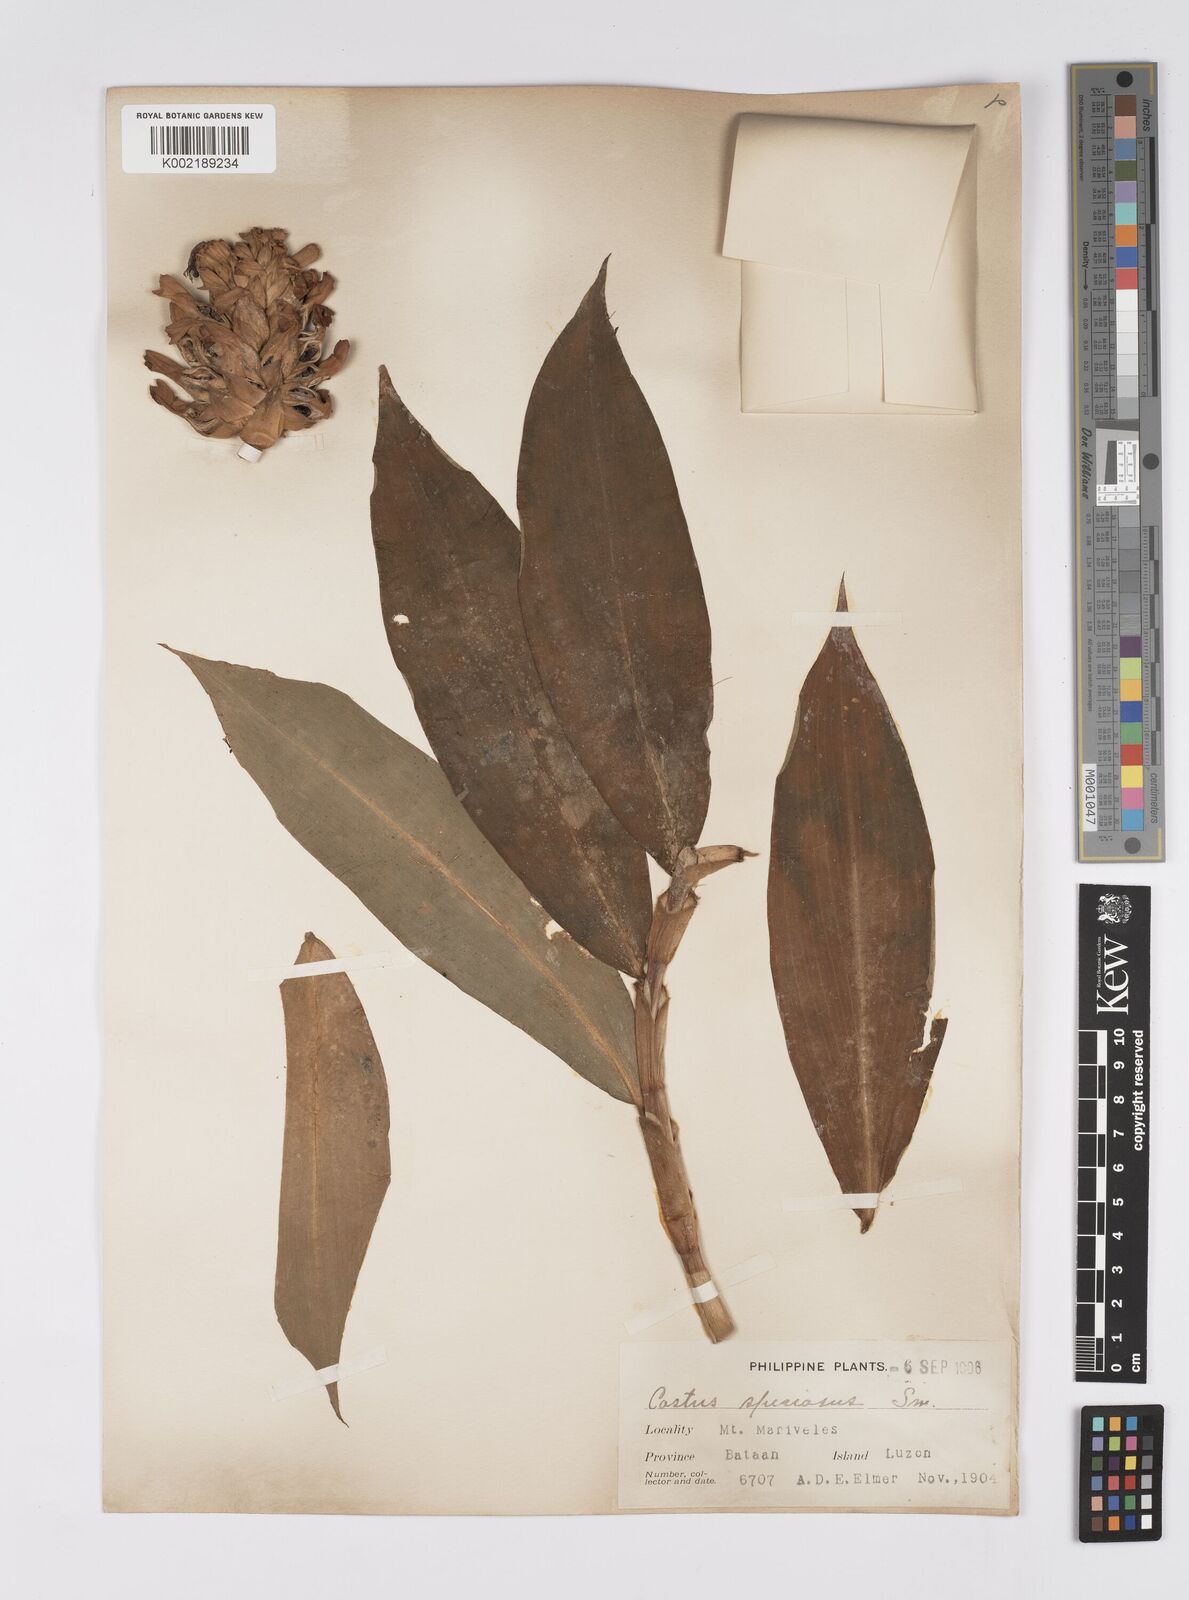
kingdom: Plantae
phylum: Tracheophyta
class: Liliopsida
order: Zingiberales
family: Costaceae
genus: Hellenia
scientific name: Hellenia speciosa
